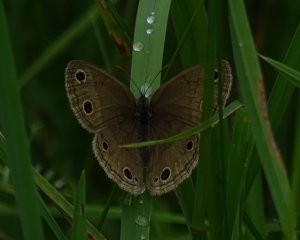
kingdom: Animalia
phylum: Arthropoda
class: Insecta
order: Lepidoptera
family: Nymphalidae
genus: Euptychia
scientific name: Euptychia cymela
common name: Little Wood Satyr
